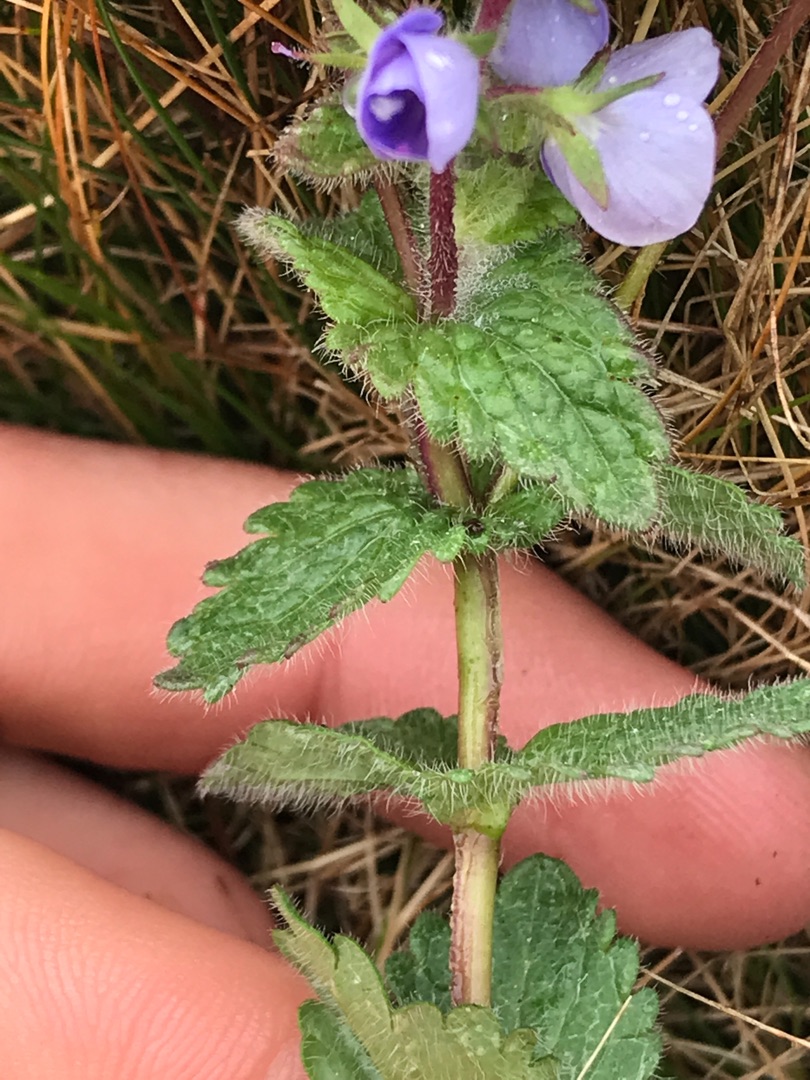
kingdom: Plantae
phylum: Tracheophyta
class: Magnoliopsida
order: Lamiales
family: Plantaginaceae
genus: Veronica
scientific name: Veronica chamaedrys
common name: Tveskægget ærenpris
